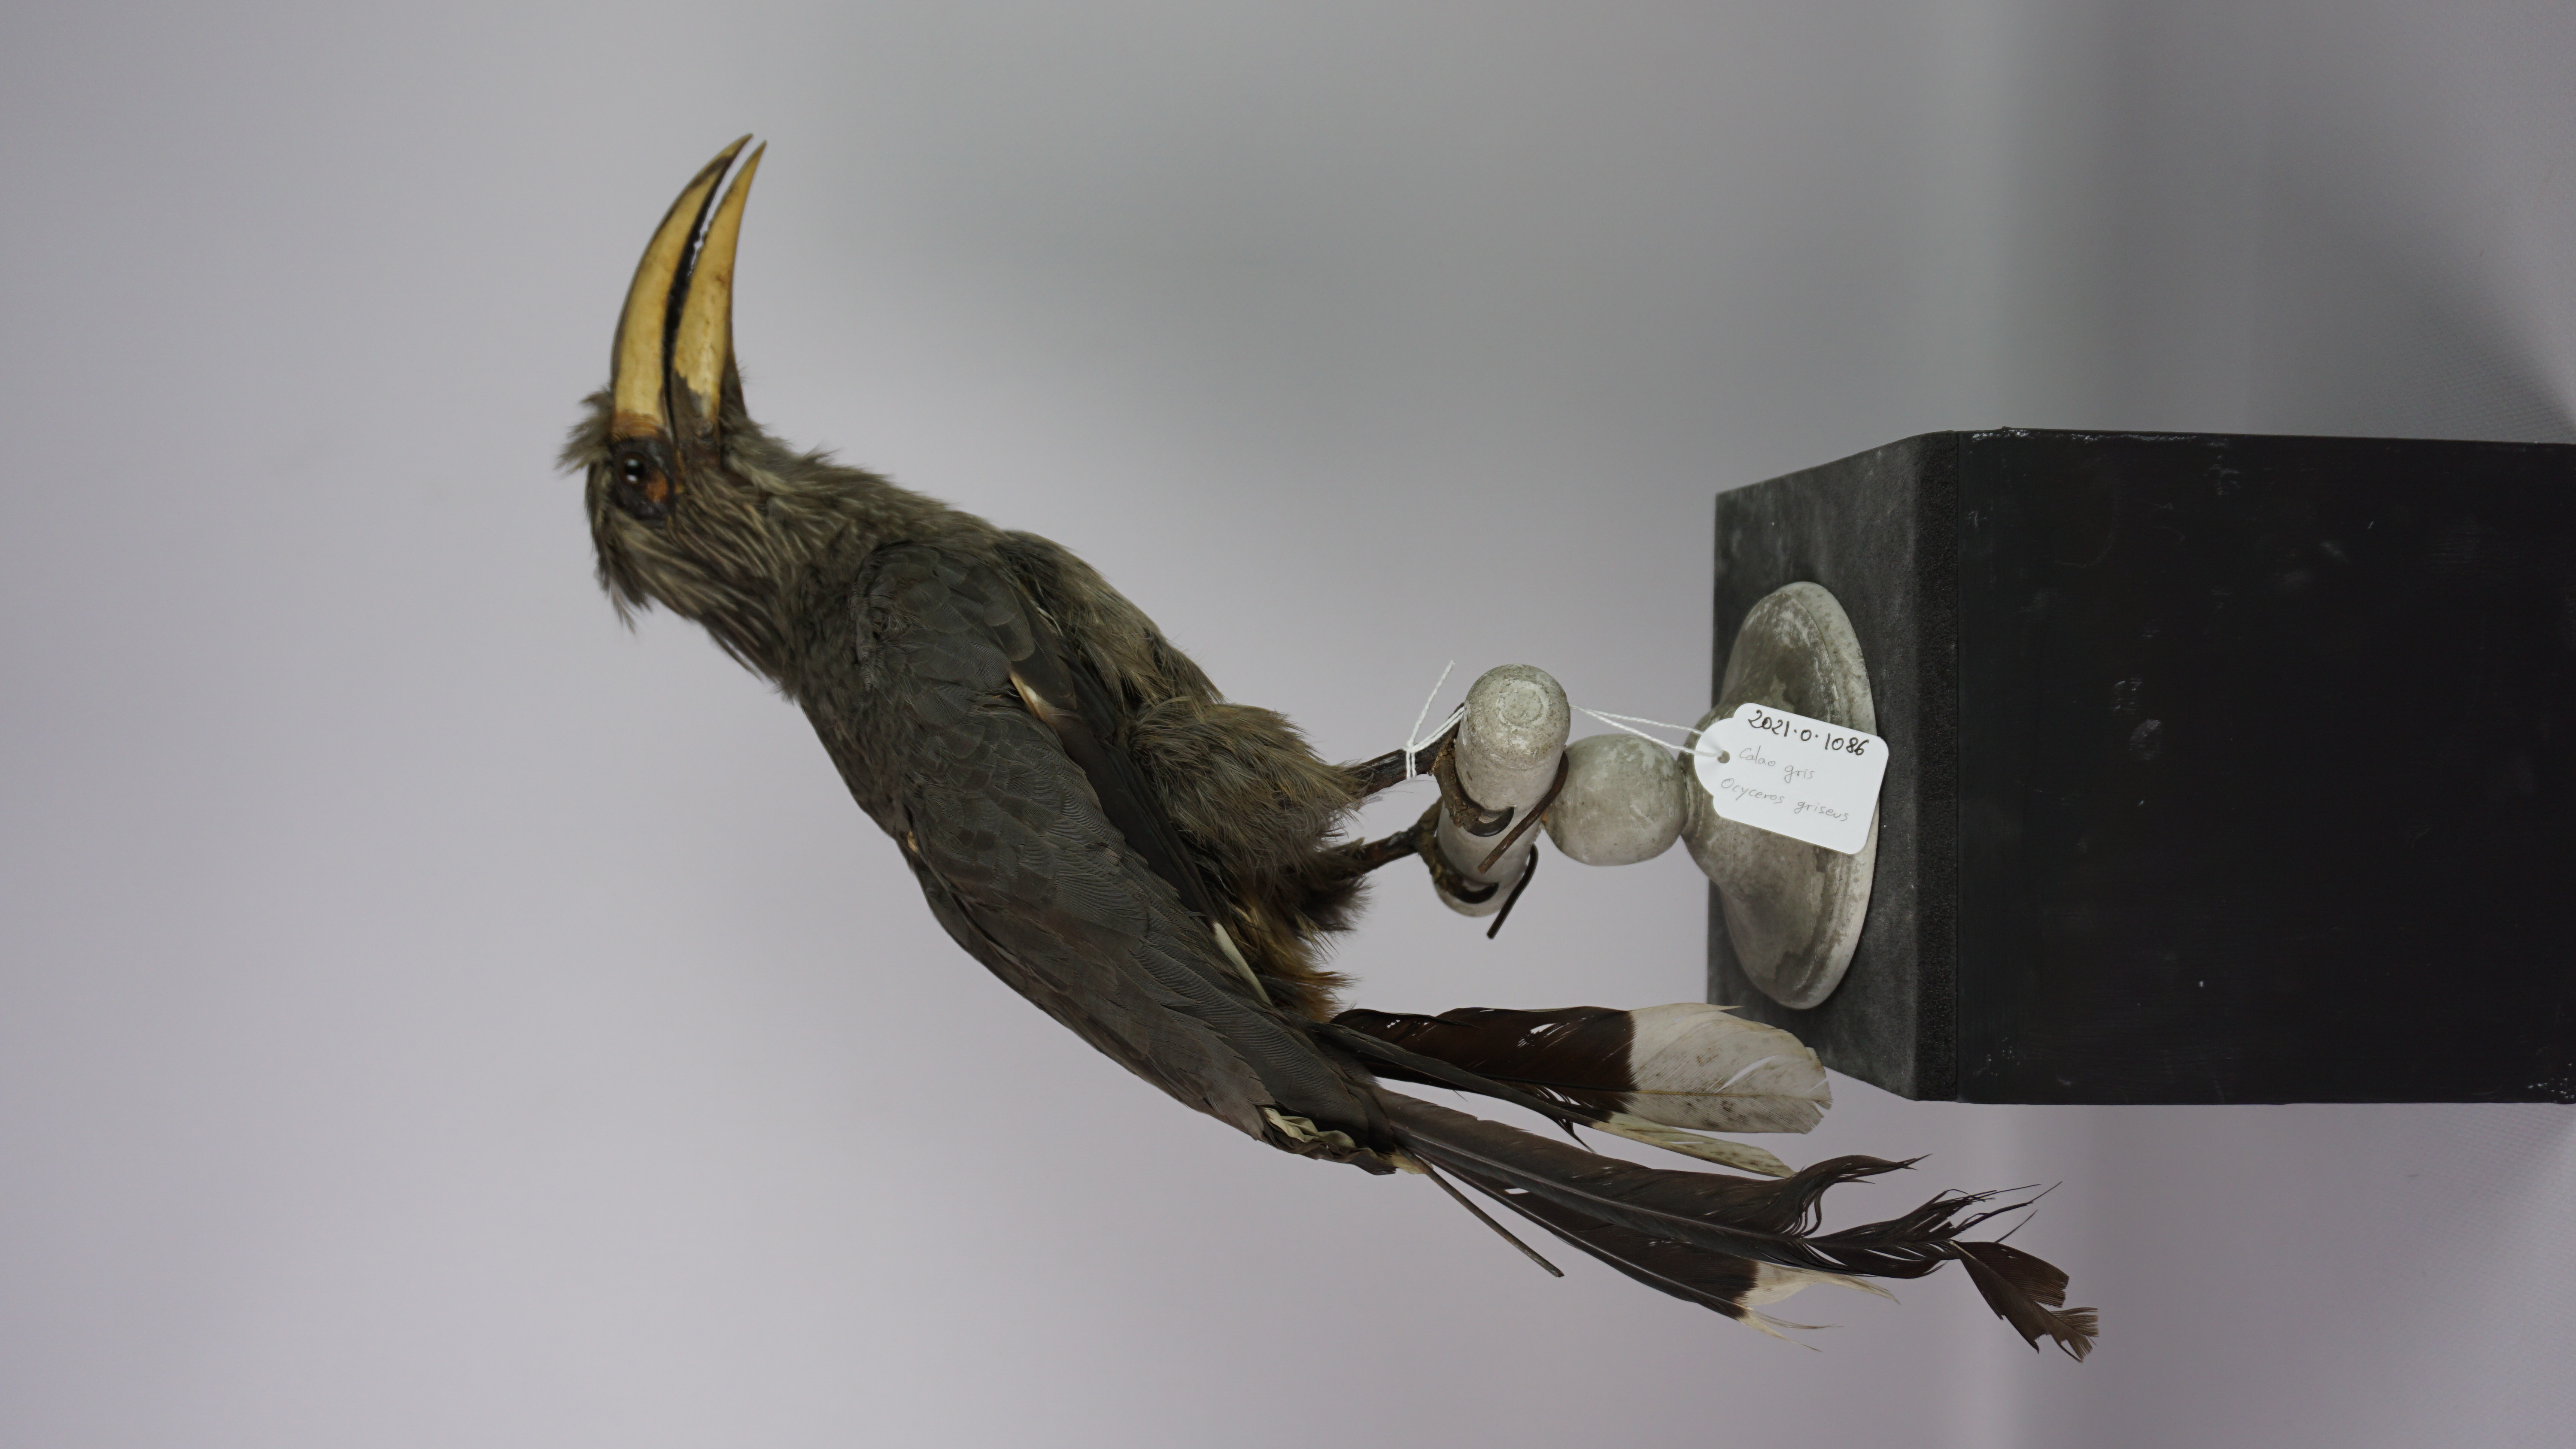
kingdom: Animalia
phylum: Chordata
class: Aves
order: Bucerotiformes
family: Bucerotidae
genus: Ocyceros
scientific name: Ocyceros griseus
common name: Malabar grey hornbill
